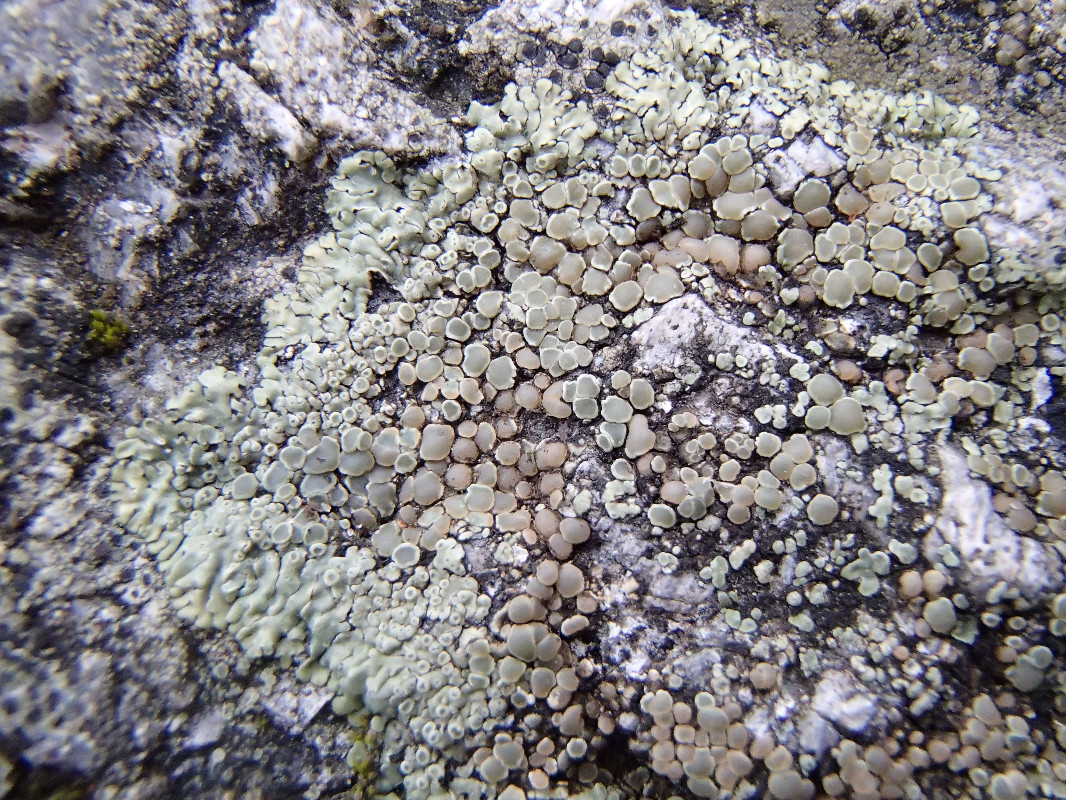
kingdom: Fungi
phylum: Ascomycota
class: Lecanoromycetes
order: Lecanorales
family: Lecanoraceae
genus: Protoparmeliopsis
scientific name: Protoparmeliopsis muralis
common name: randfliget kantskivelav
